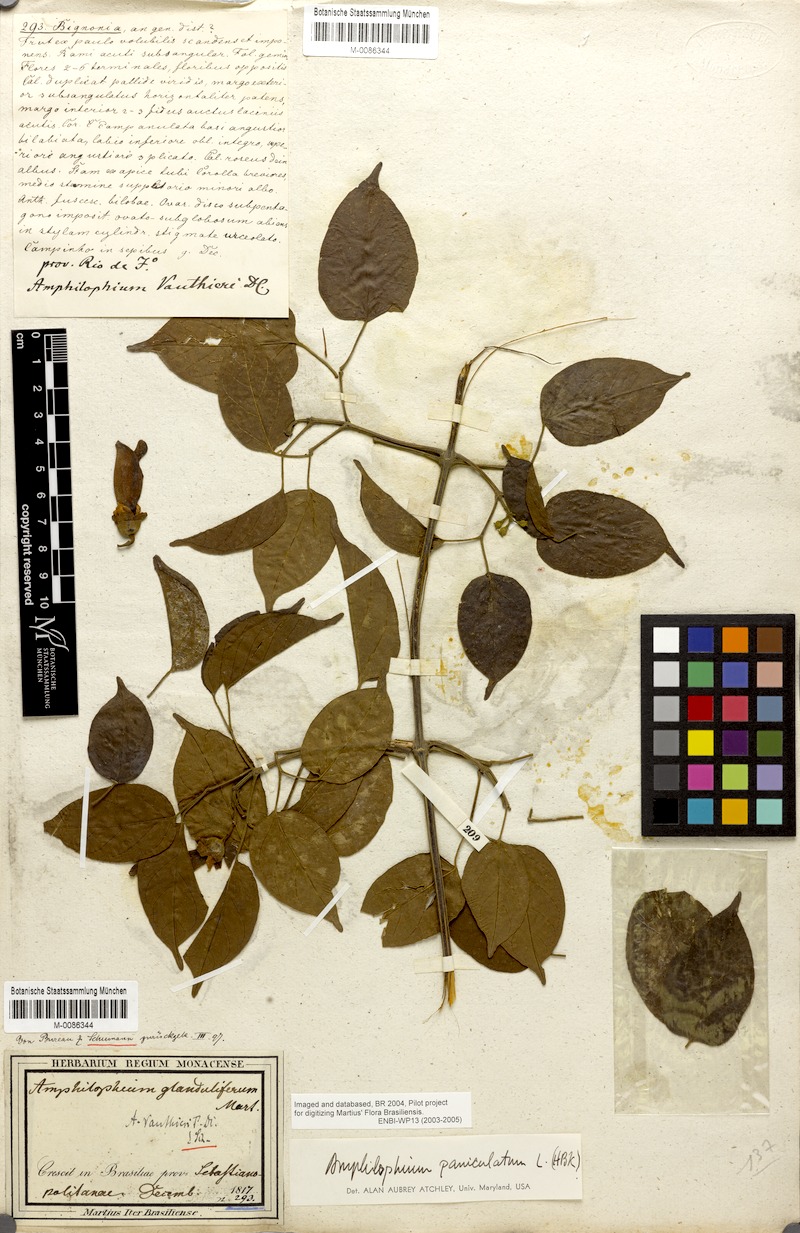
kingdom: Plantae
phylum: Tracheophyta
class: Magnoliopsida
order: Lamiales
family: Bignoniaceae
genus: Amphilophium
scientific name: Amphilophium paniculatum
